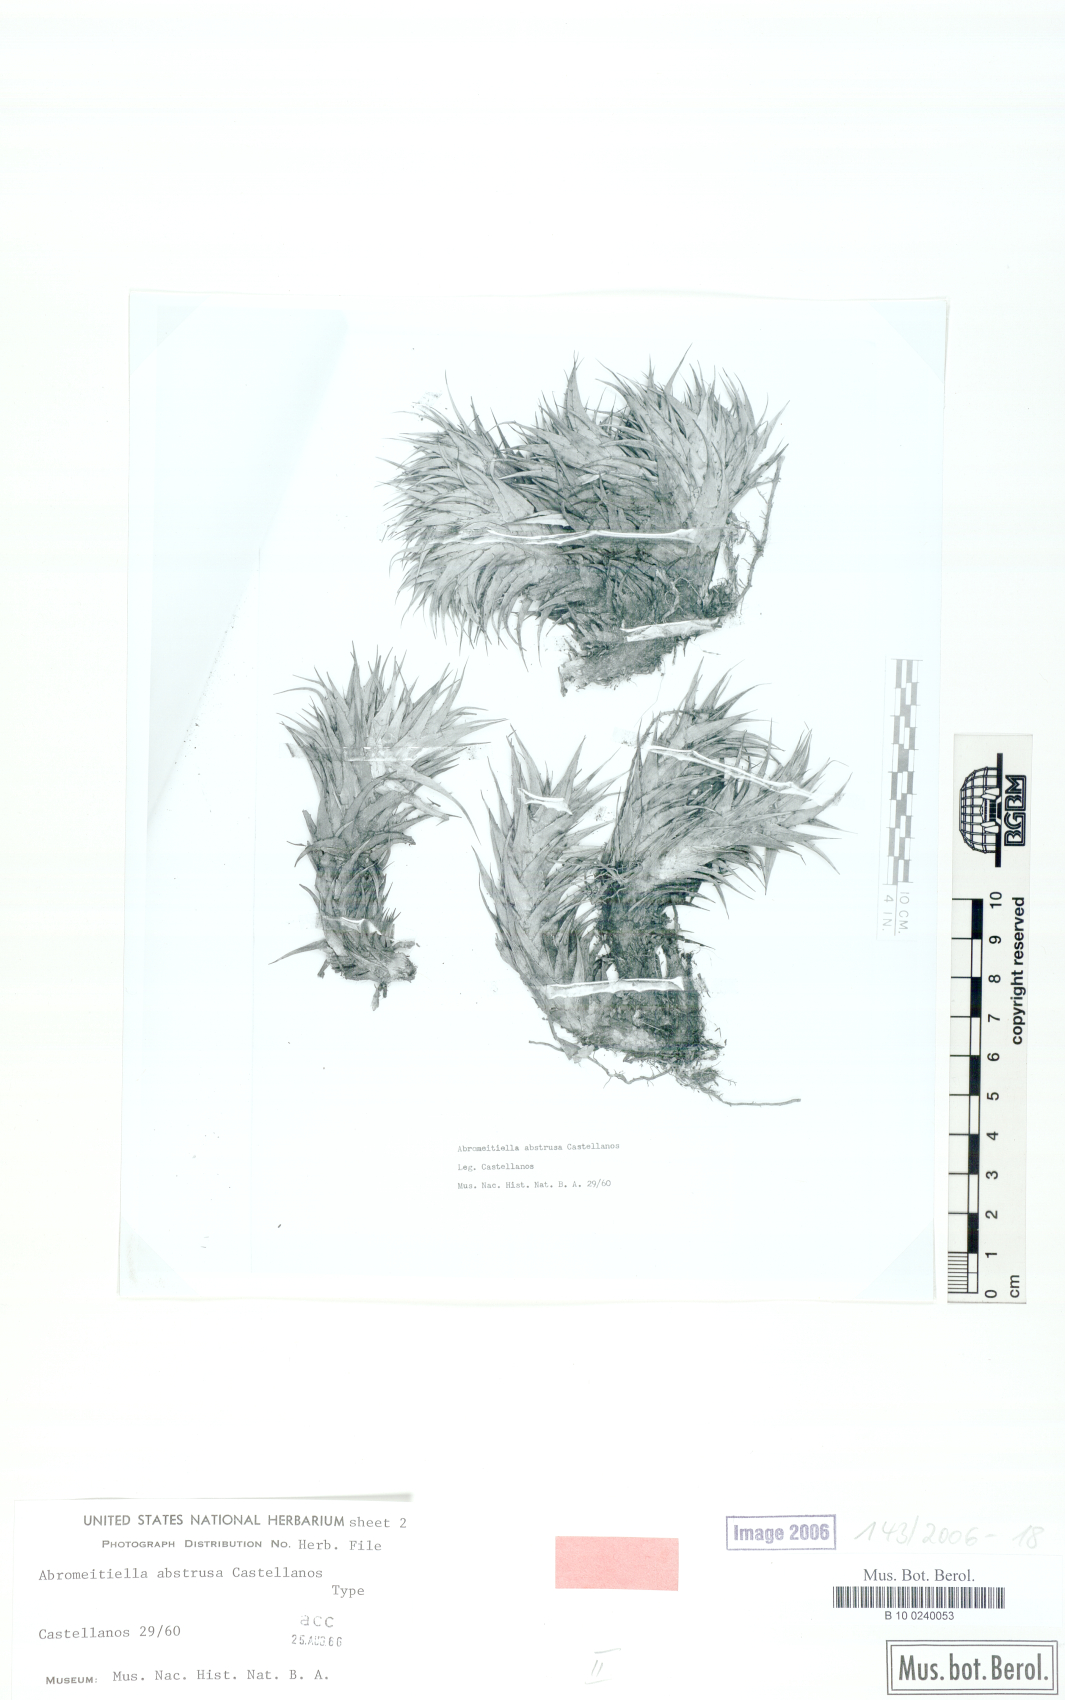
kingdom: Plantae
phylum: Tracheophyta
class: Liliopsida
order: Poales
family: Bromeliaceae
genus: Deuterocohnia
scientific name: Deuterocohnia abstrusa
